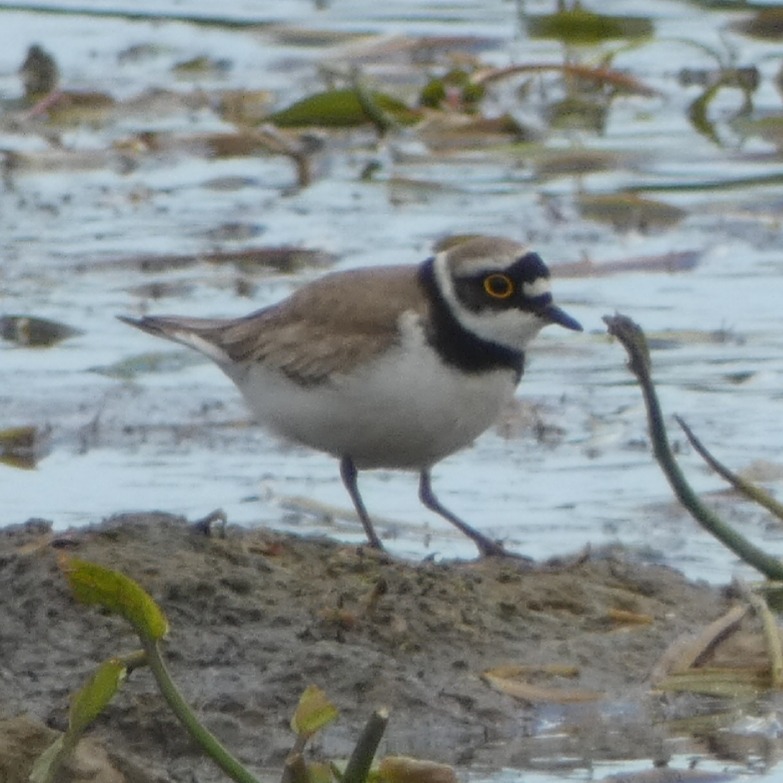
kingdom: Animalia
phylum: Chordata
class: Aves
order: Charadriiformes
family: Charadriidae
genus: Charadrius
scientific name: Charadrius dubius
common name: Lille præstekrave
